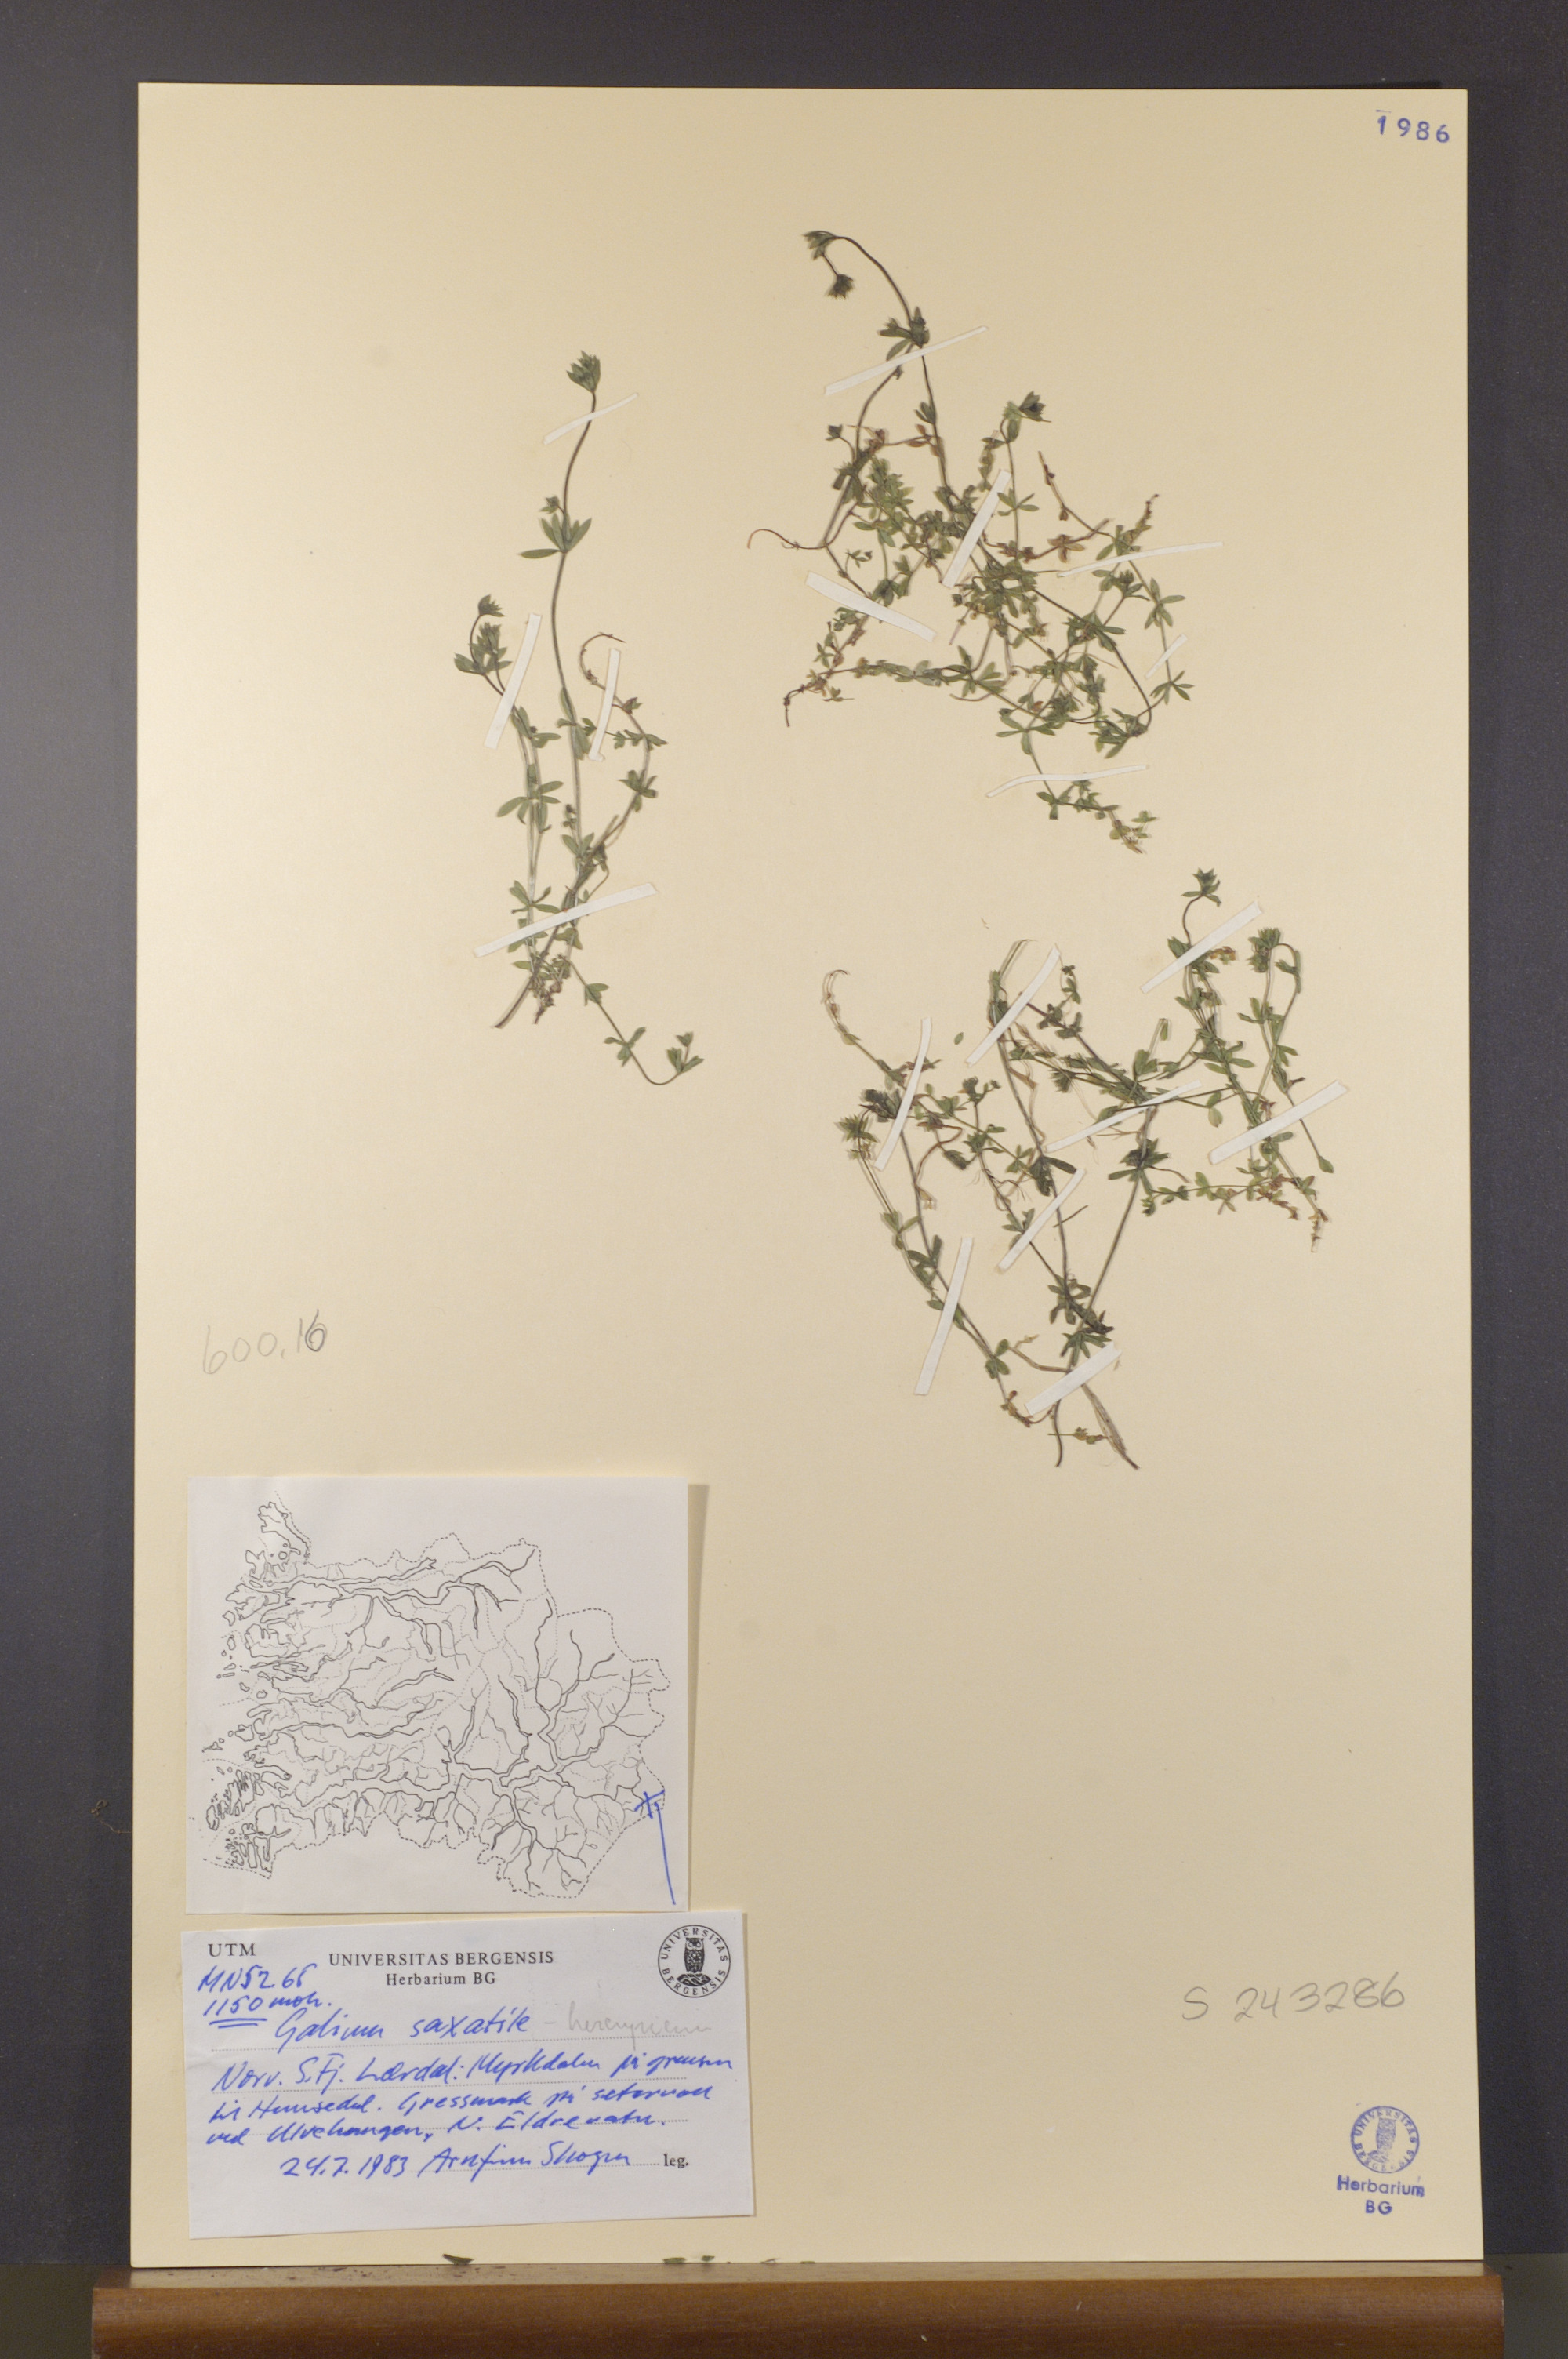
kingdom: Plantae
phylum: Tracheophyta
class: Magnoliopsida
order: Gentianales
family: Rubiaceae
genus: Galium
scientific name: Galium saxatile
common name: Heath bedstraw
